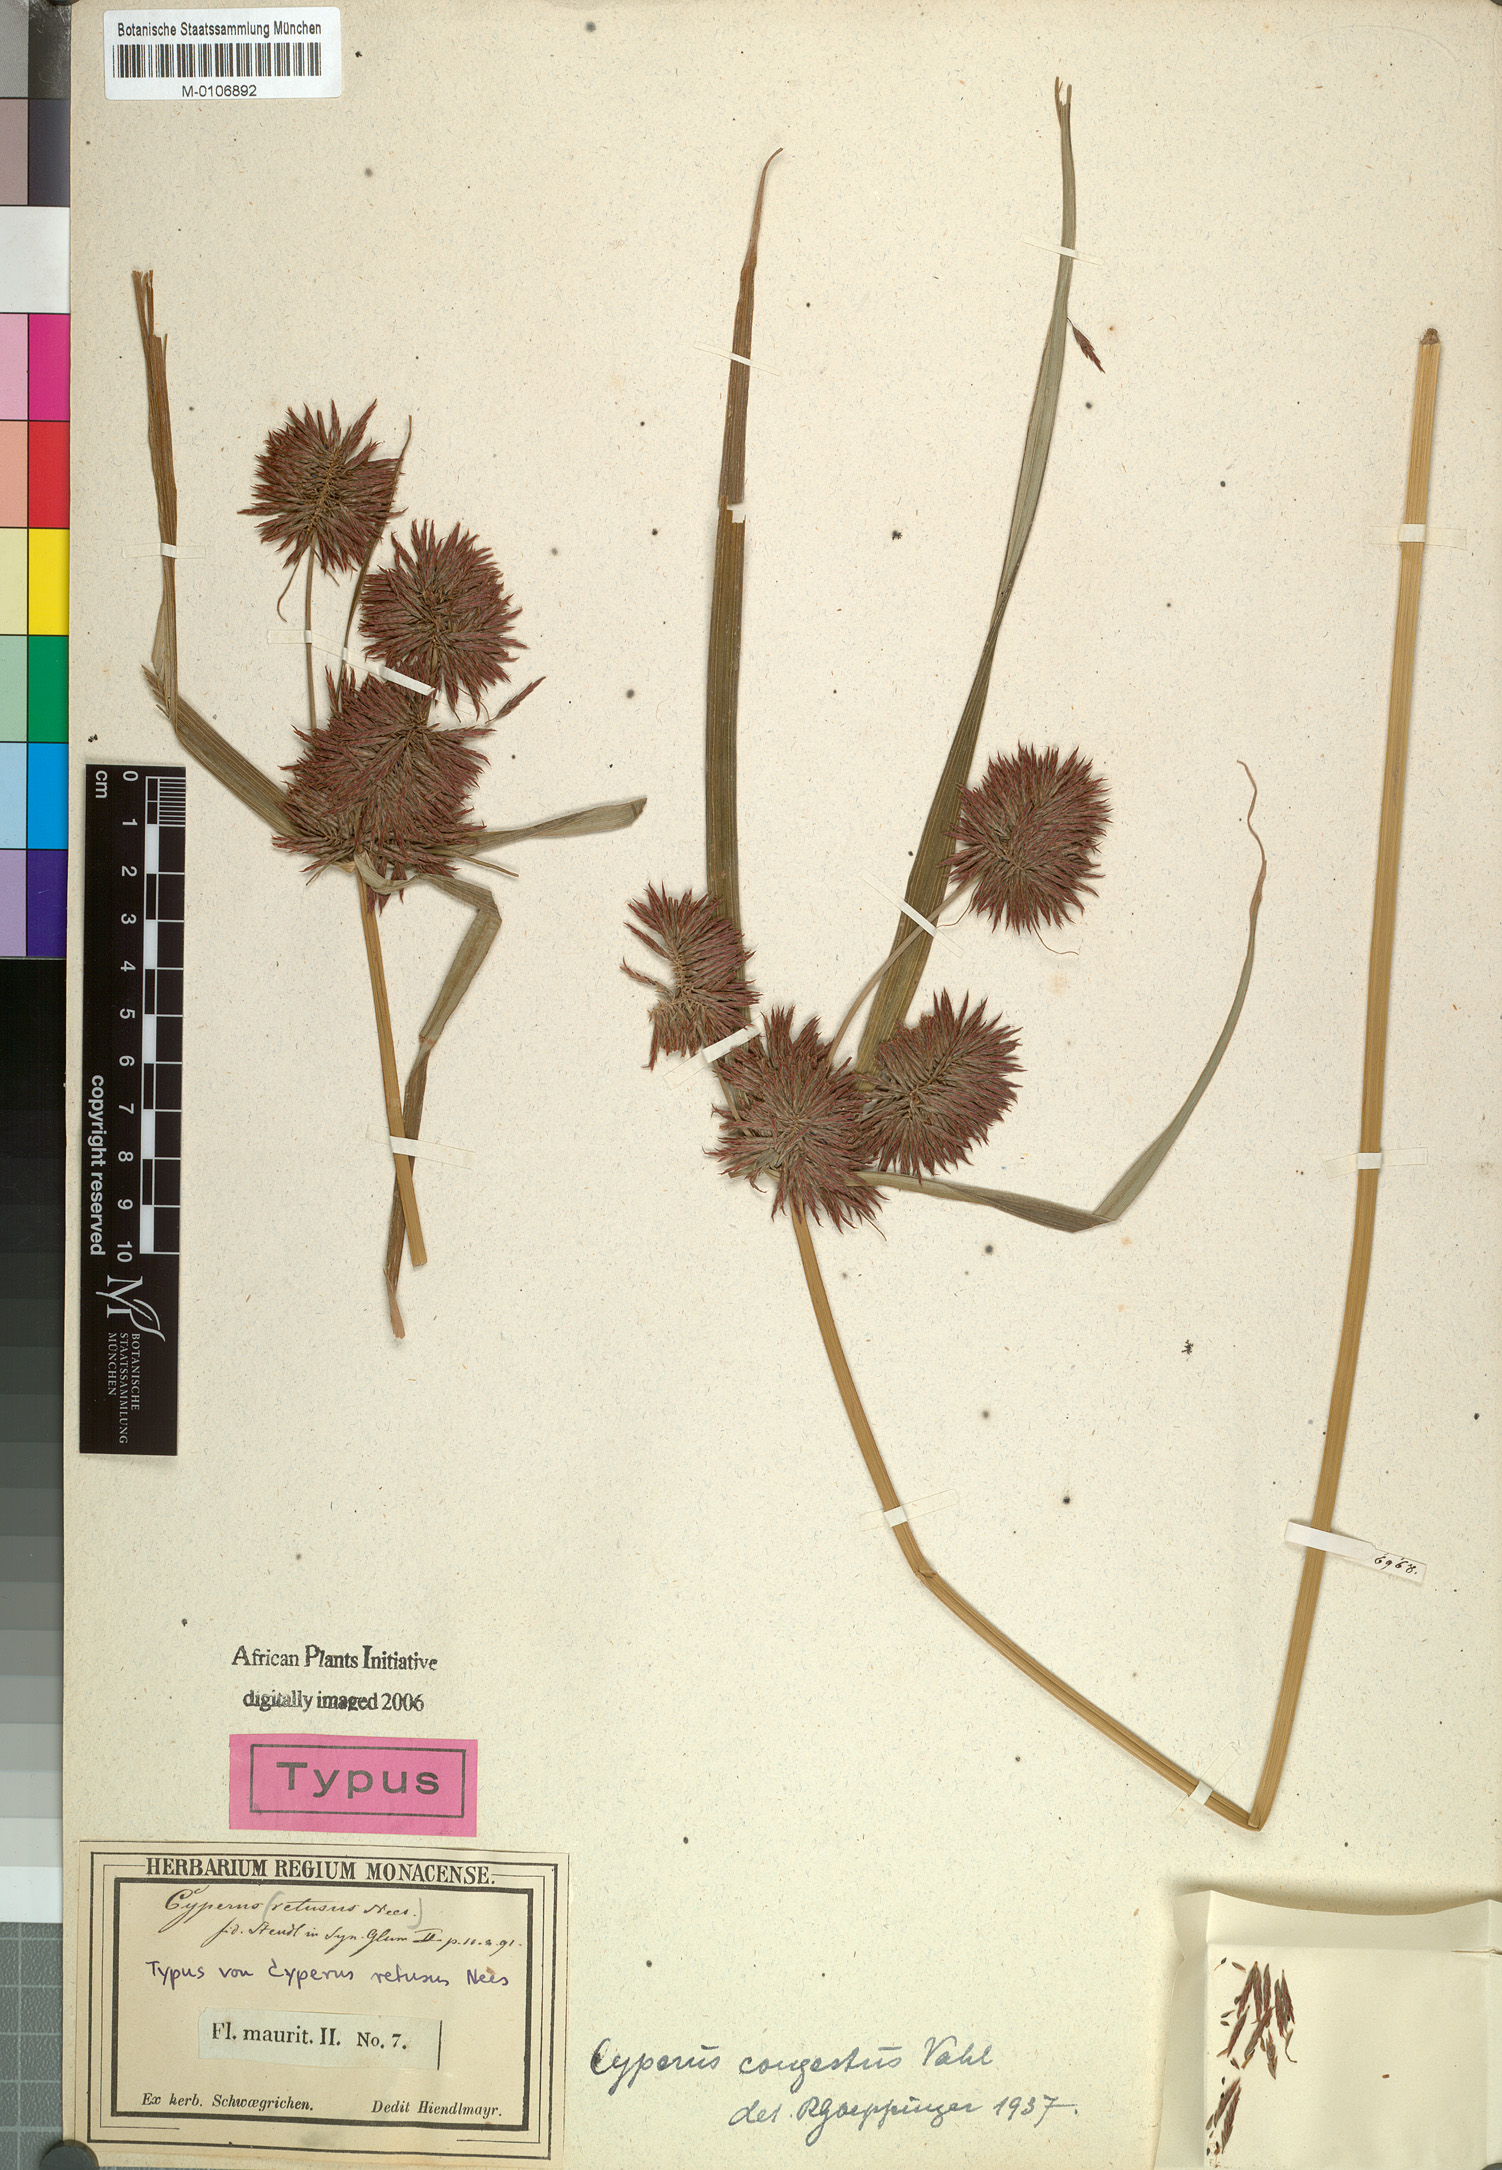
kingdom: Plantae
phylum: Tracheophyta
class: Liliopsida
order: Poales
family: Cyperaceae
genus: Cyperus
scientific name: Cyperus congestus
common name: Dense flat sedge
